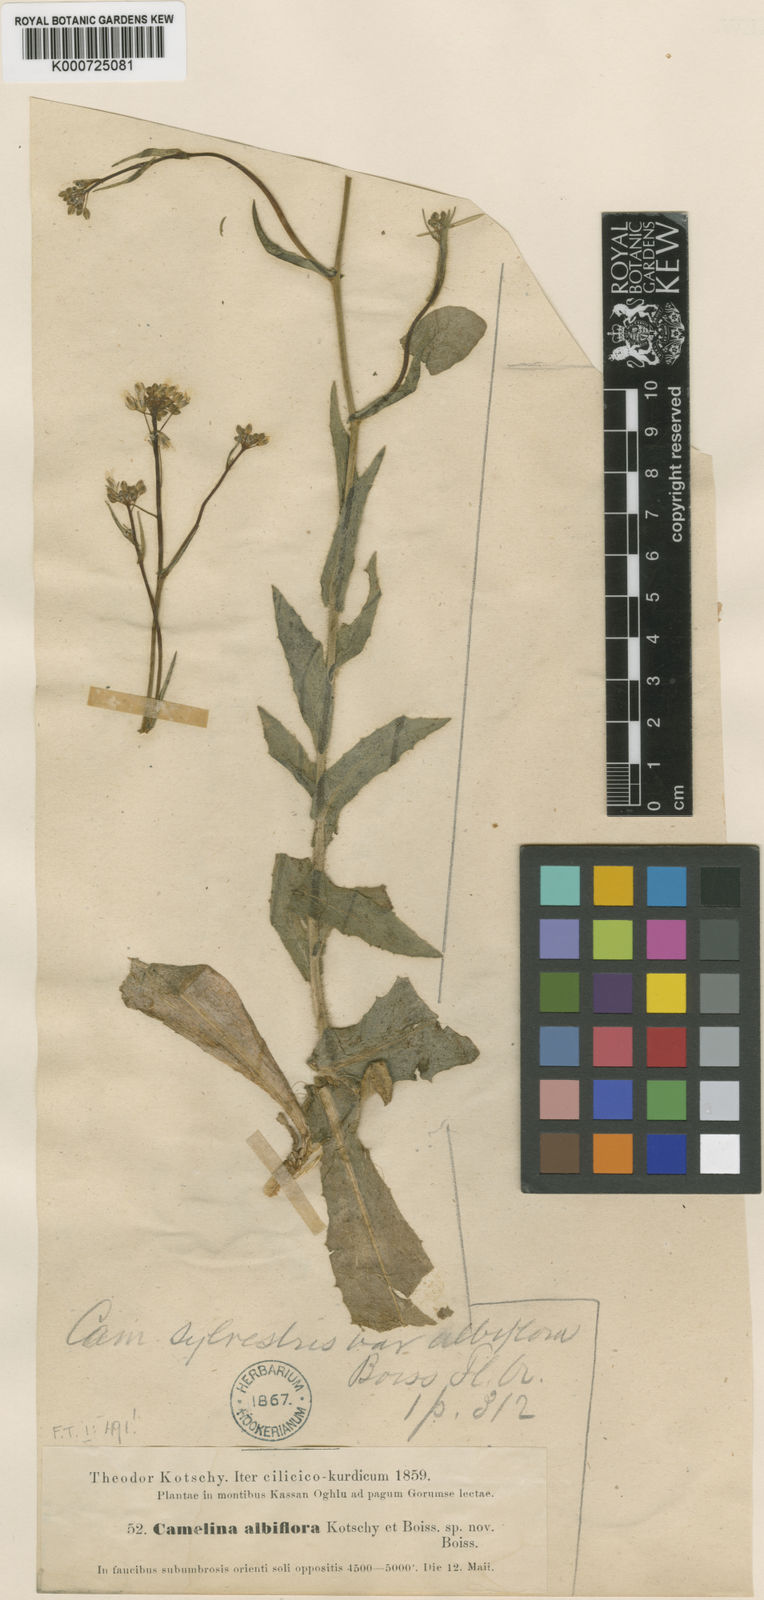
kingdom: Plantae
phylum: Tracheophyta
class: Magnoliopsida
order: Brassicales
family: Brassicaceae
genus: Camelina
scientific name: Camelina rumelica
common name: Graceful false flax
